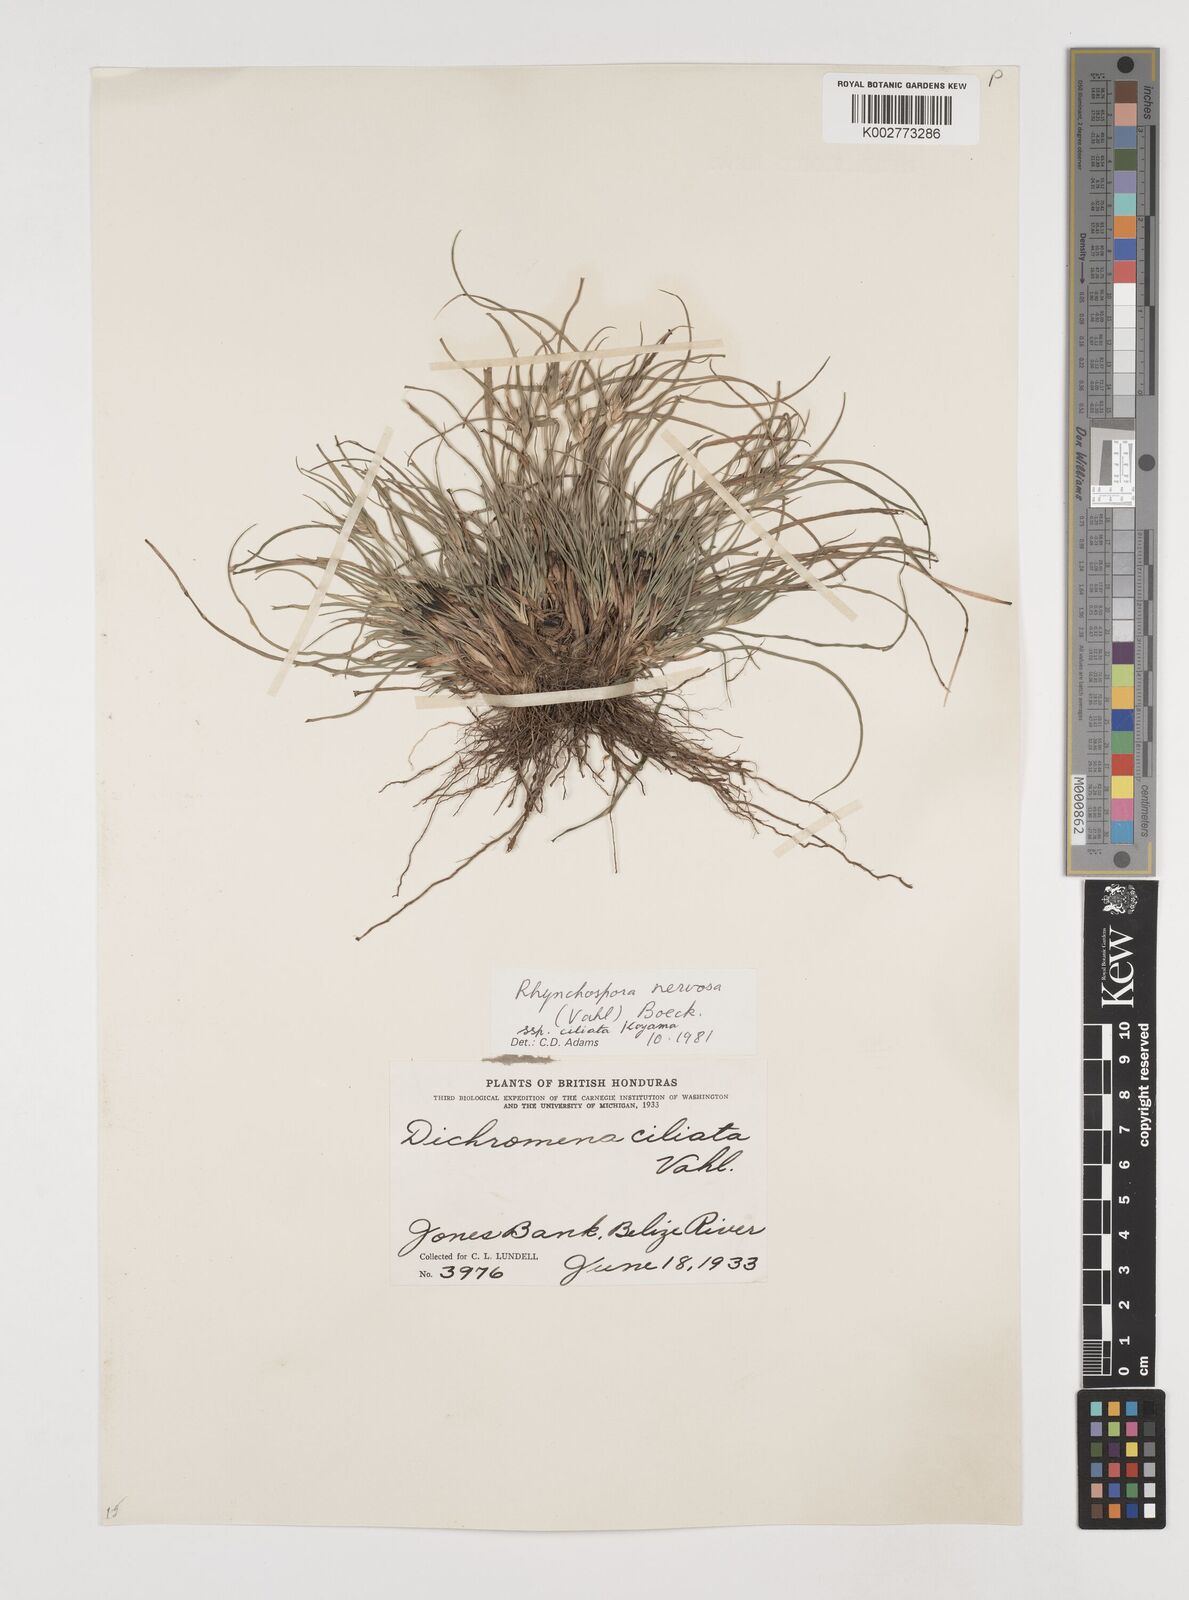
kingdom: Plantae
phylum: Tracheophyta
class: Liliopsida
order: Poales
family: Cyperaceae
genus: Rhynchospora
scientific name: Rhynchospora pura
